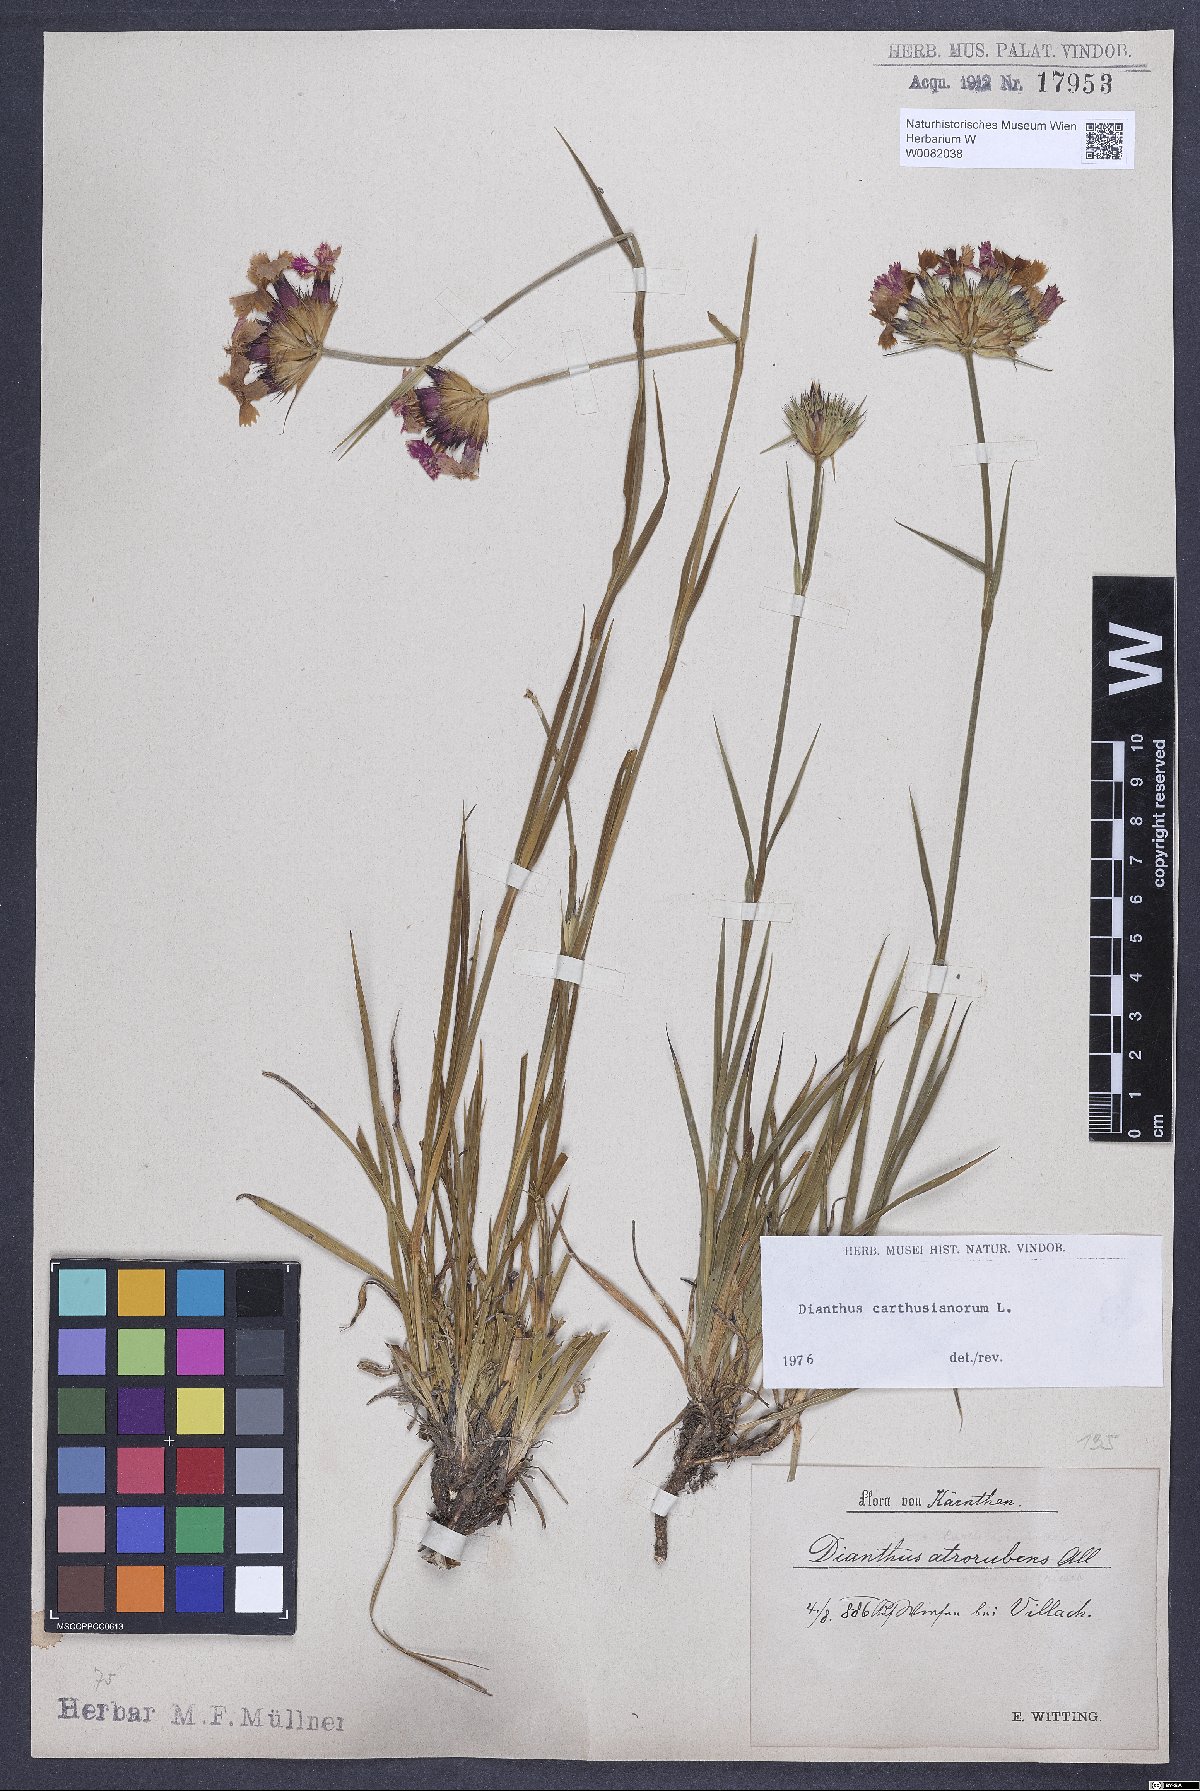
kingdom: Plantae
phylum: Tracheophyta
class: Magnoliopsida
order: Caryophyllales
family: Caryophyllaceae
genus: Dianthus
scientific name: Dianthus carthusianorum
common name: Carthusian pink
